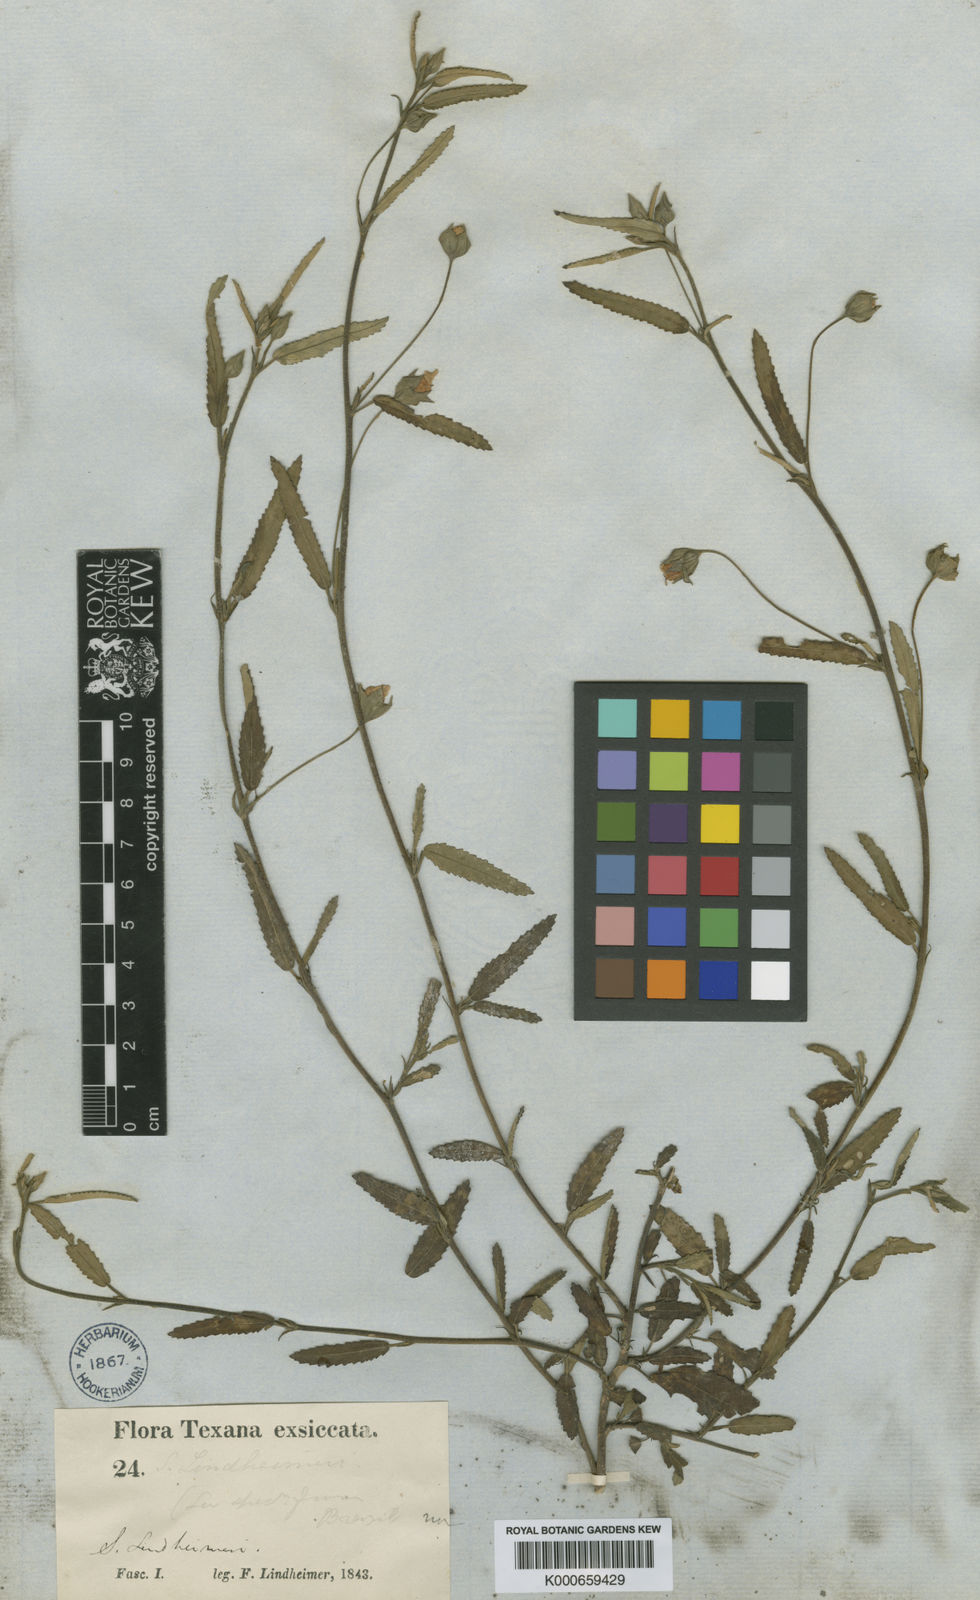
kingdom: Plantae
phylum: Tracheophyta
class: Magnoliopsida
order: Malvales
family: Malvaceae
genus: Sida
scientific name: Sida lindheimeri
